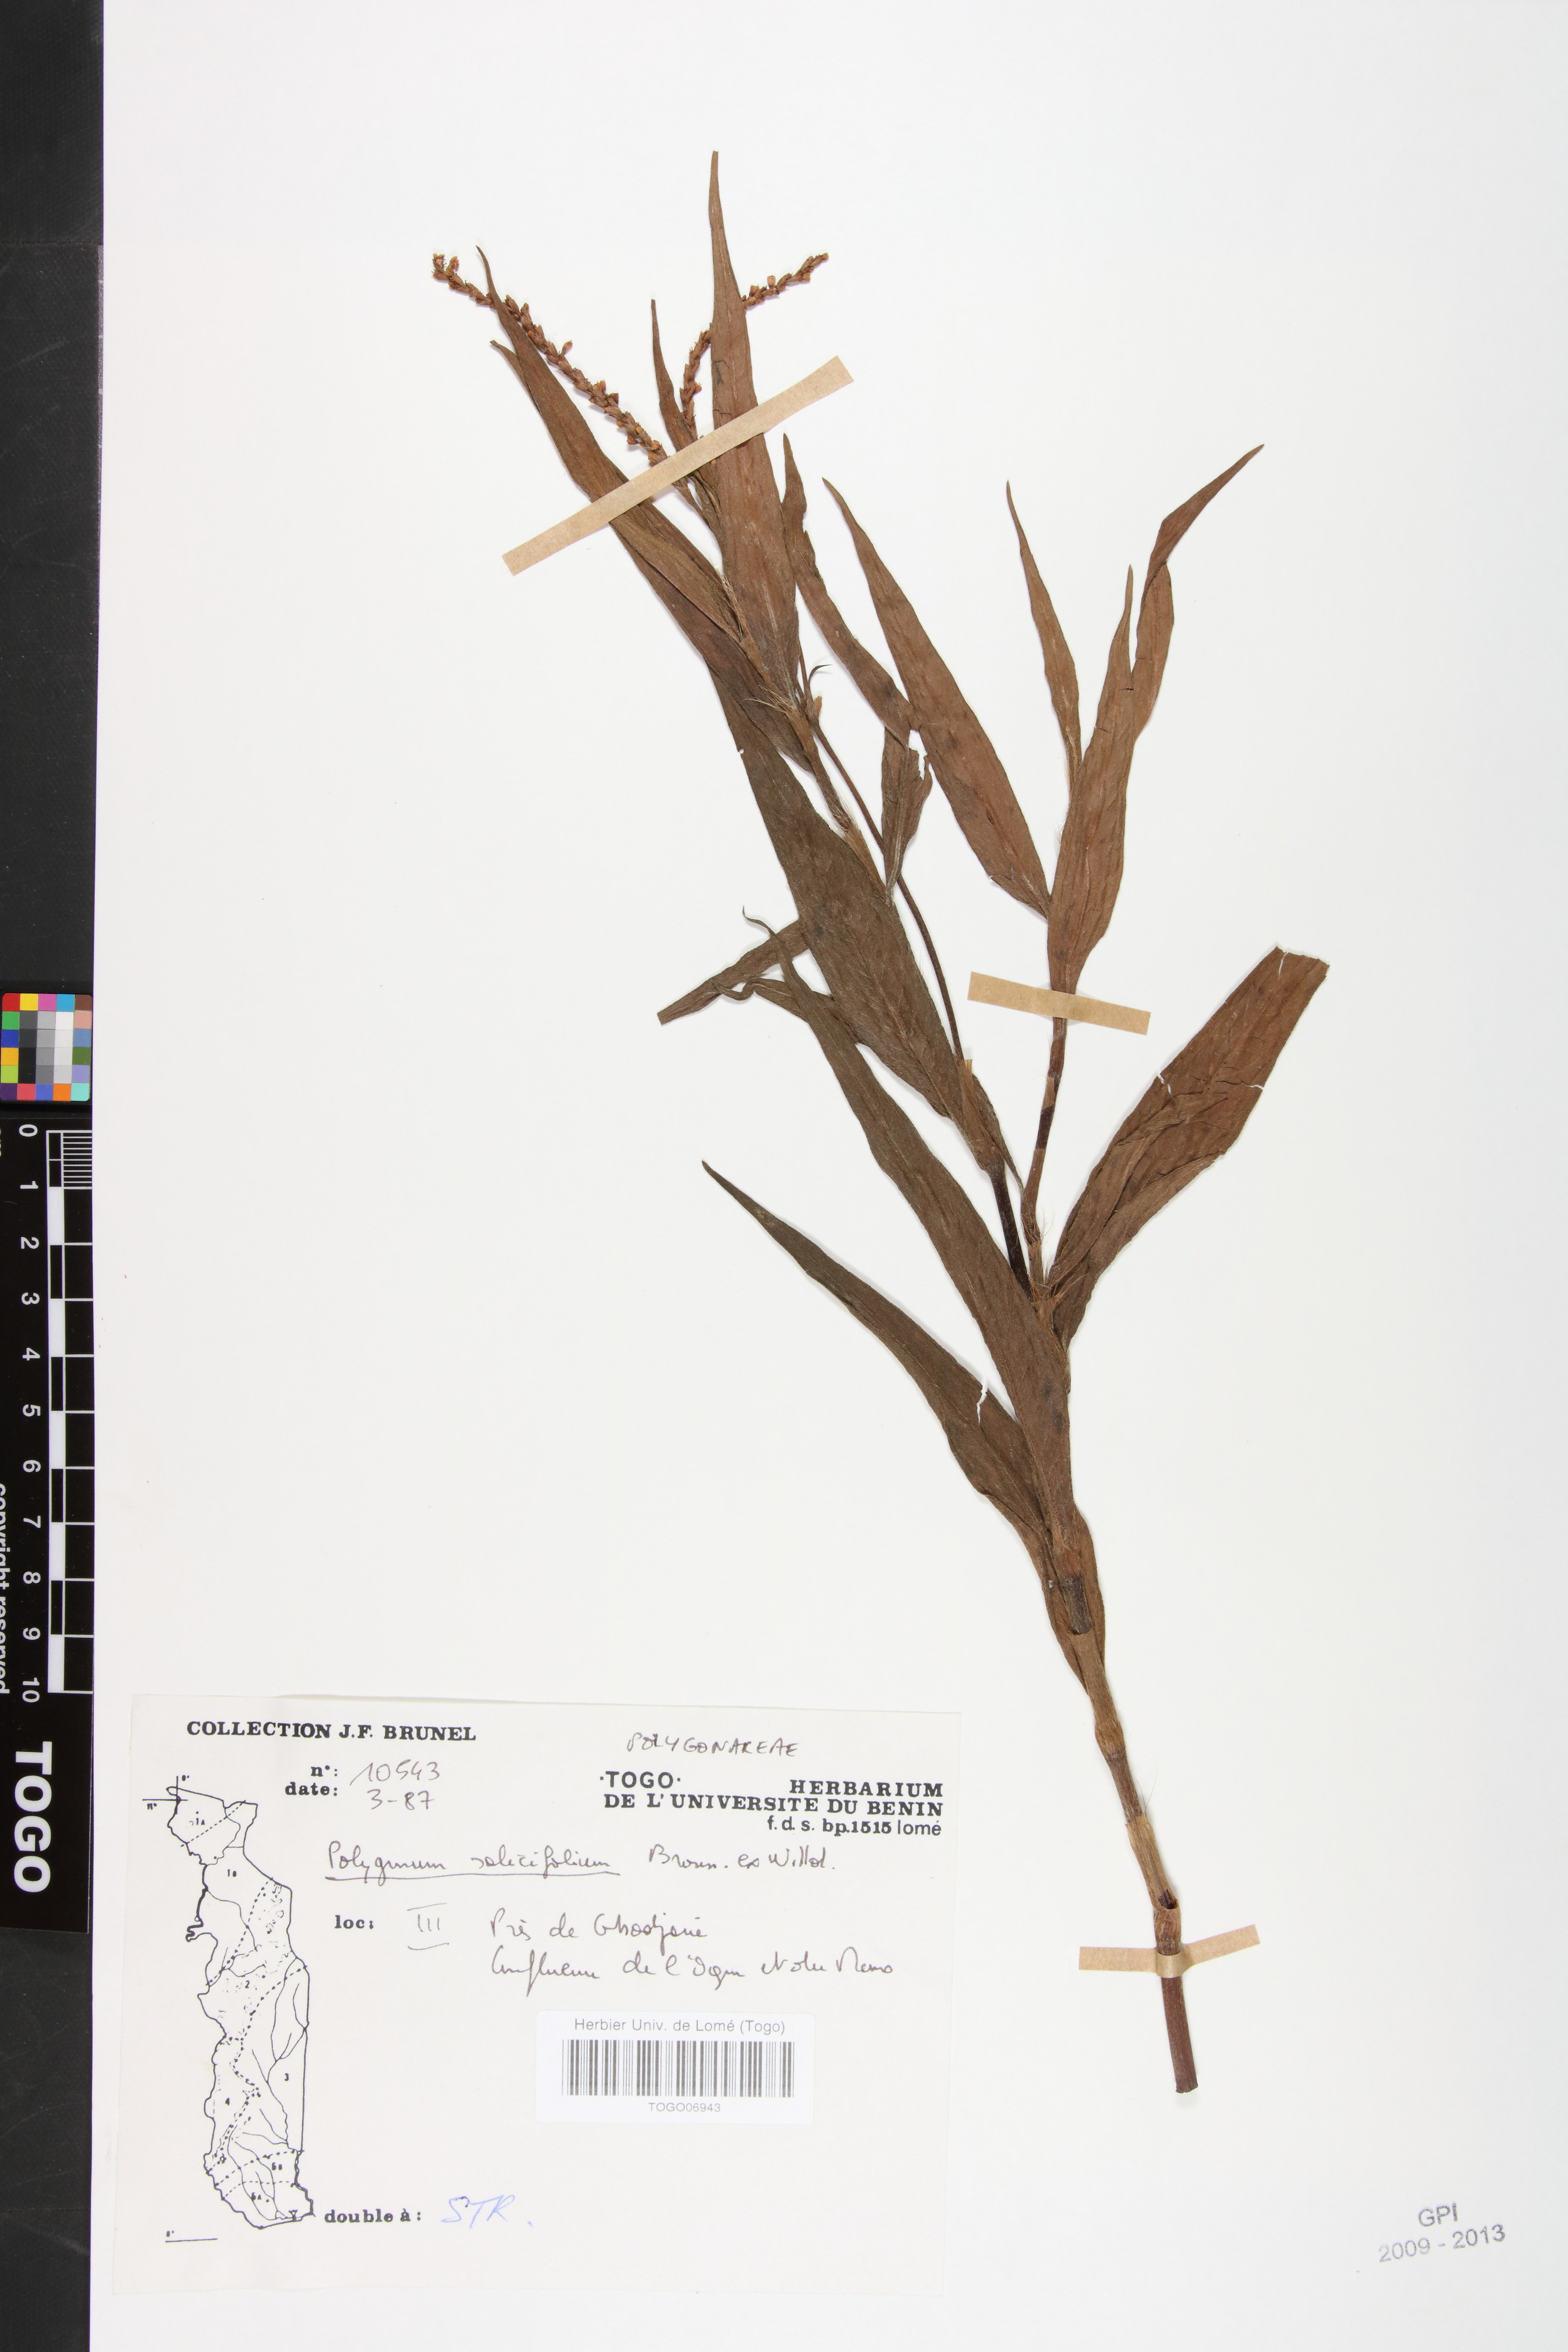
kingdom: Plantae
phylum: Tracheophyta
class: Magnoliopsida
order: Caryophyllales
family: Polygonaceae
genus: Persicaria
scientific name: Persicaria salicifolia
